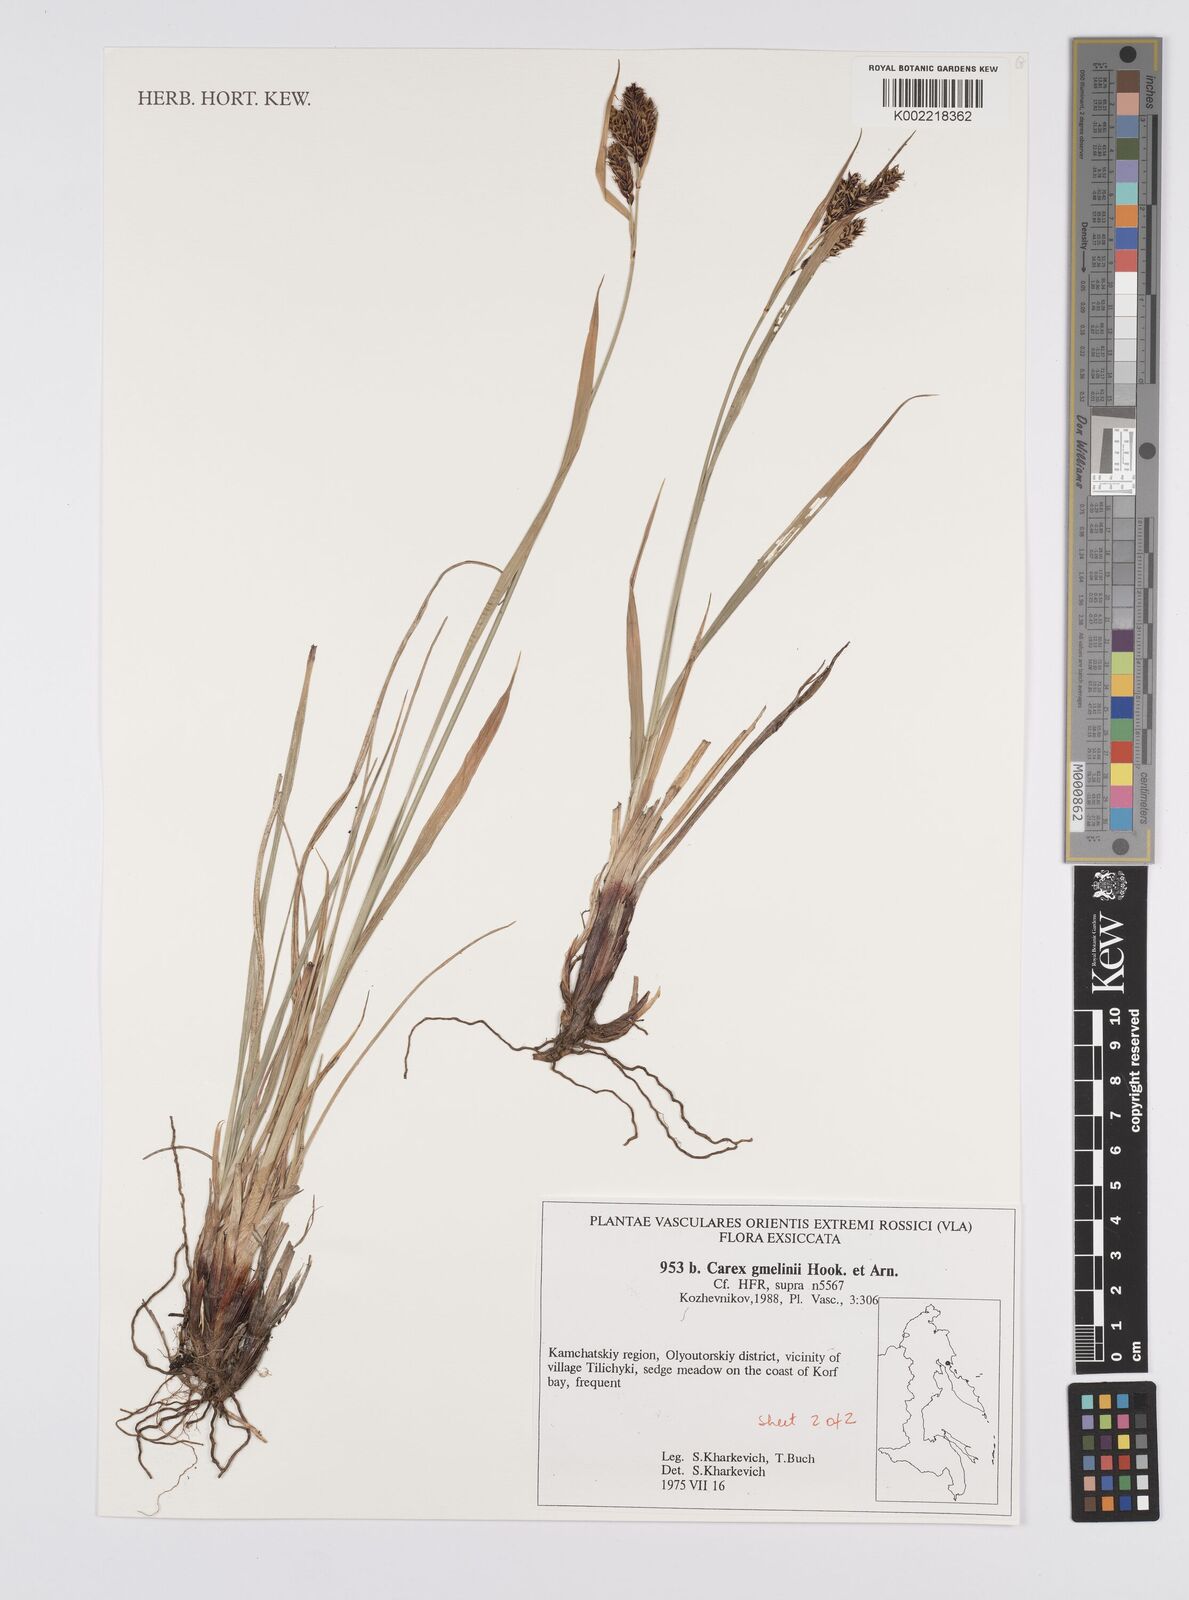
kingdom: Plantae
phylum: Tracheophyta
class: Liliopsida
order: Poales
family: Cyperaceae
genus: Carex
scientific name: Carex gmelinii
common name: Gmelin's sedge
